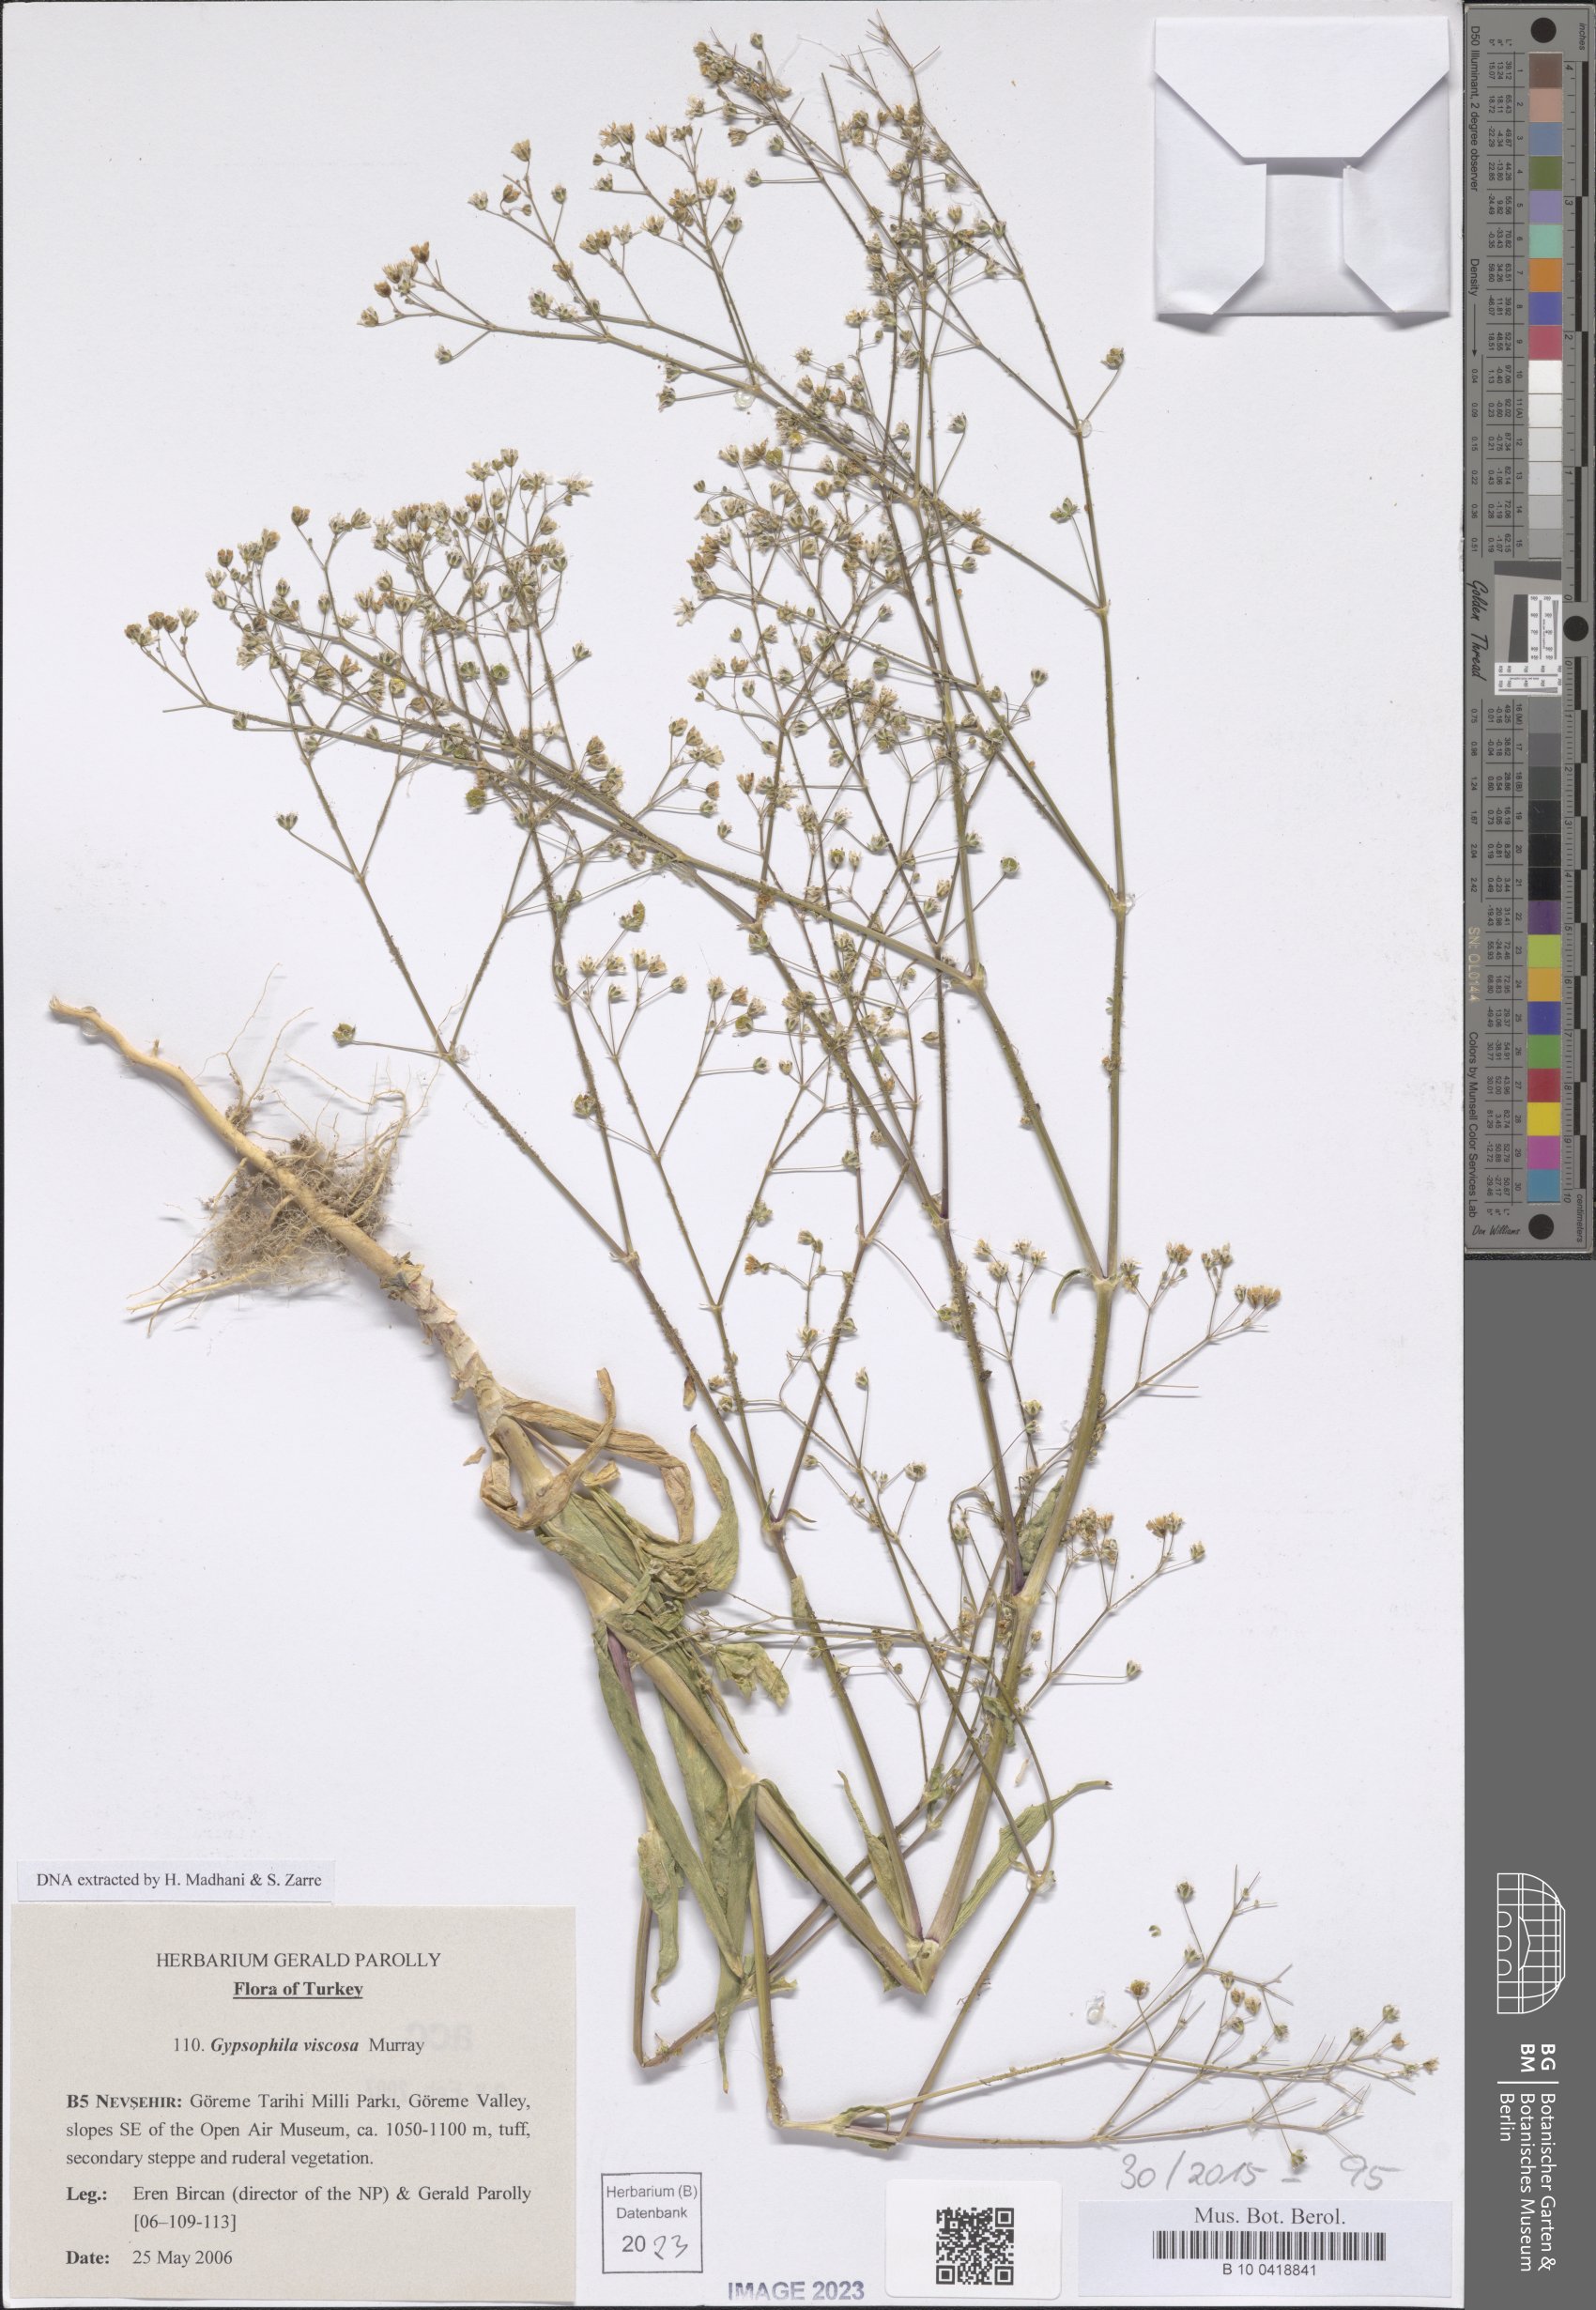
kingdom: Plantae
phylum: Tracheophyta
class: Magnoliopsida
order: Caryophyllales
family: Caryophyllaceae
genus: Gypsophila
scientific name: Gypsophila viscosa
